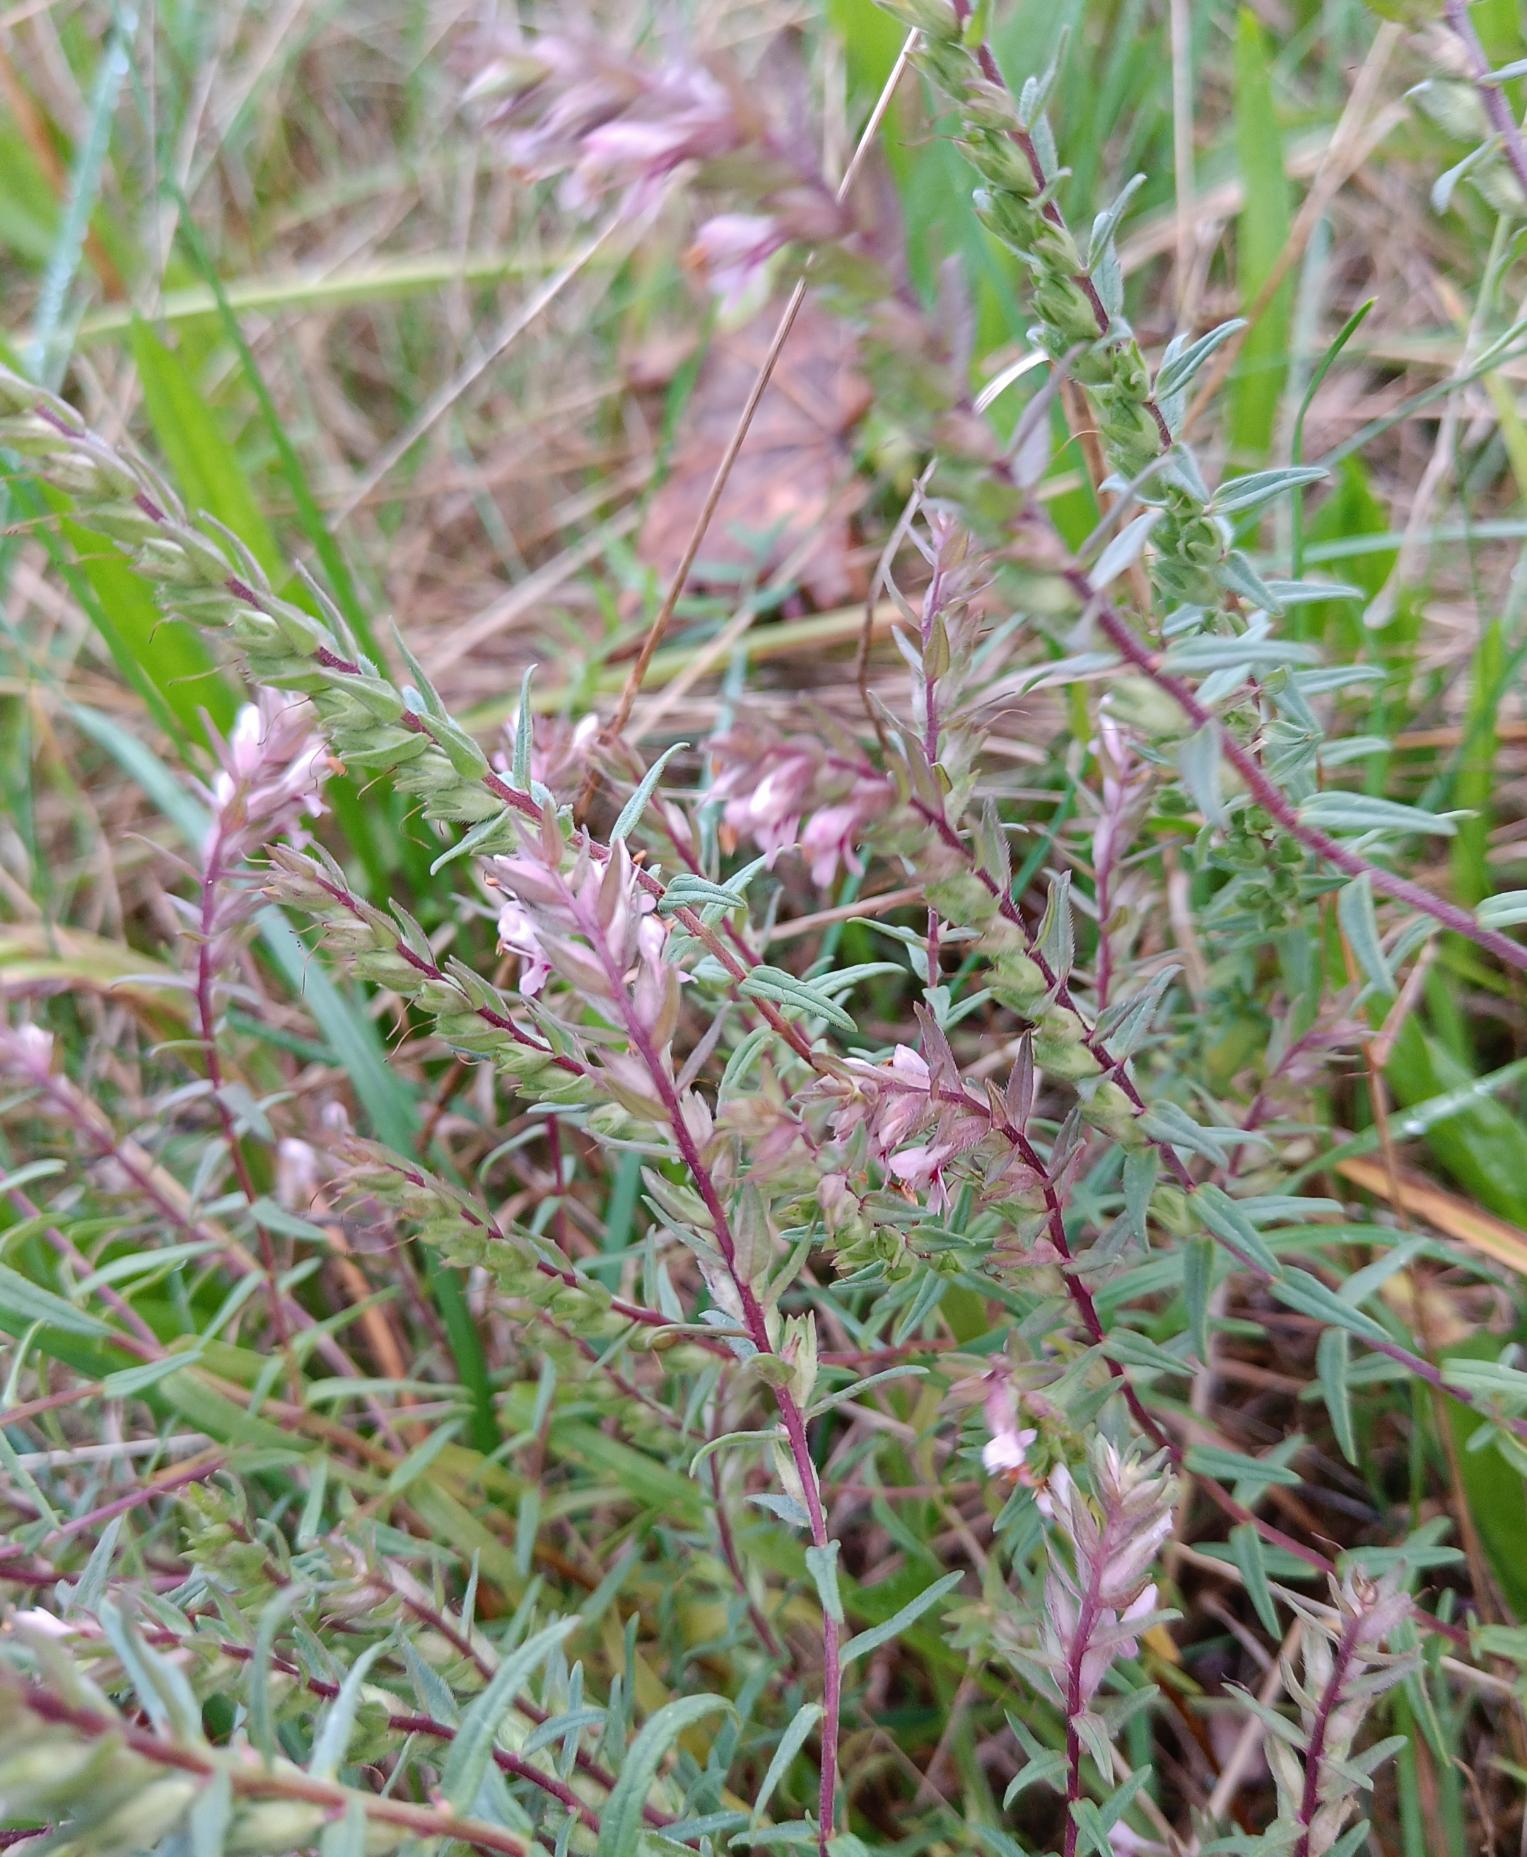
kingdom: Plantae
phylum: Tracheophyta
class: Magnoliopsida
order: Lamiales
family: Orobanchaceae
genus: Odontites
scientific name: Odontites vulgaris
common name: Høst-rødtop
